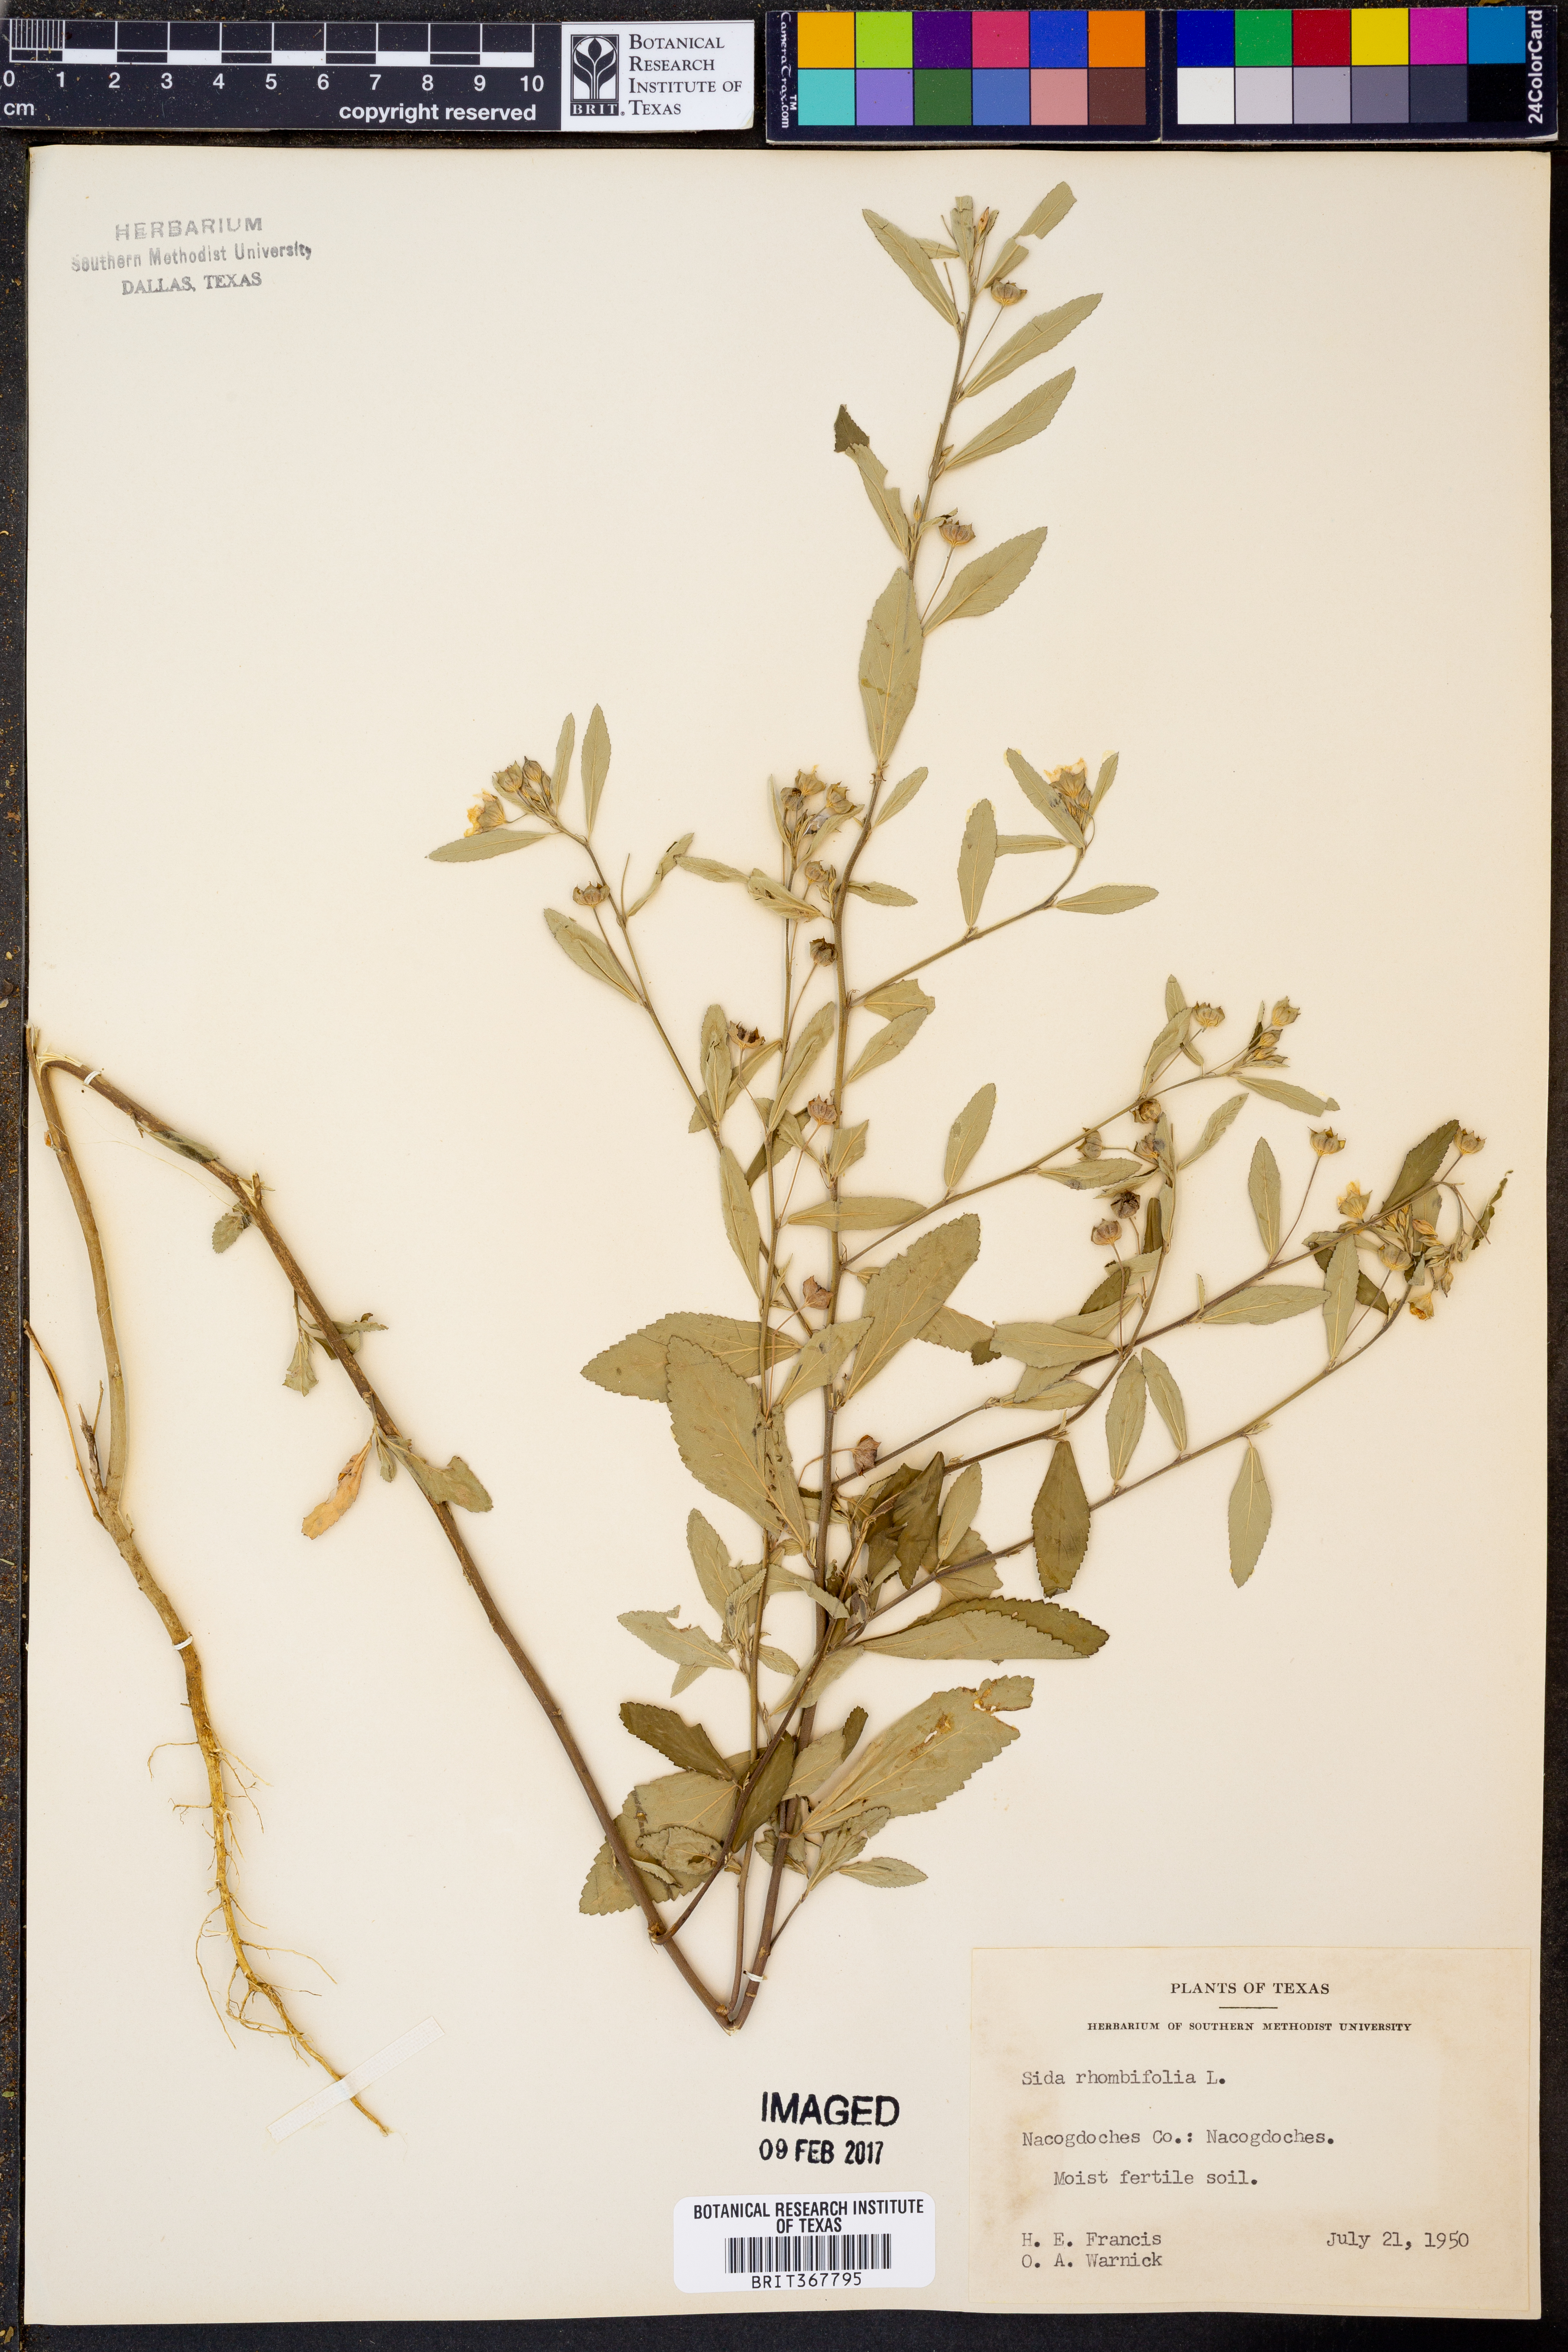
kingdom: Plantae
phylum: Tracheophyta
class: Magnoliopsida
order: Malvales
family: Malvaceae
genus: Sida
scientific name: Sida rhombifolia
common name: Queensland-hemp
